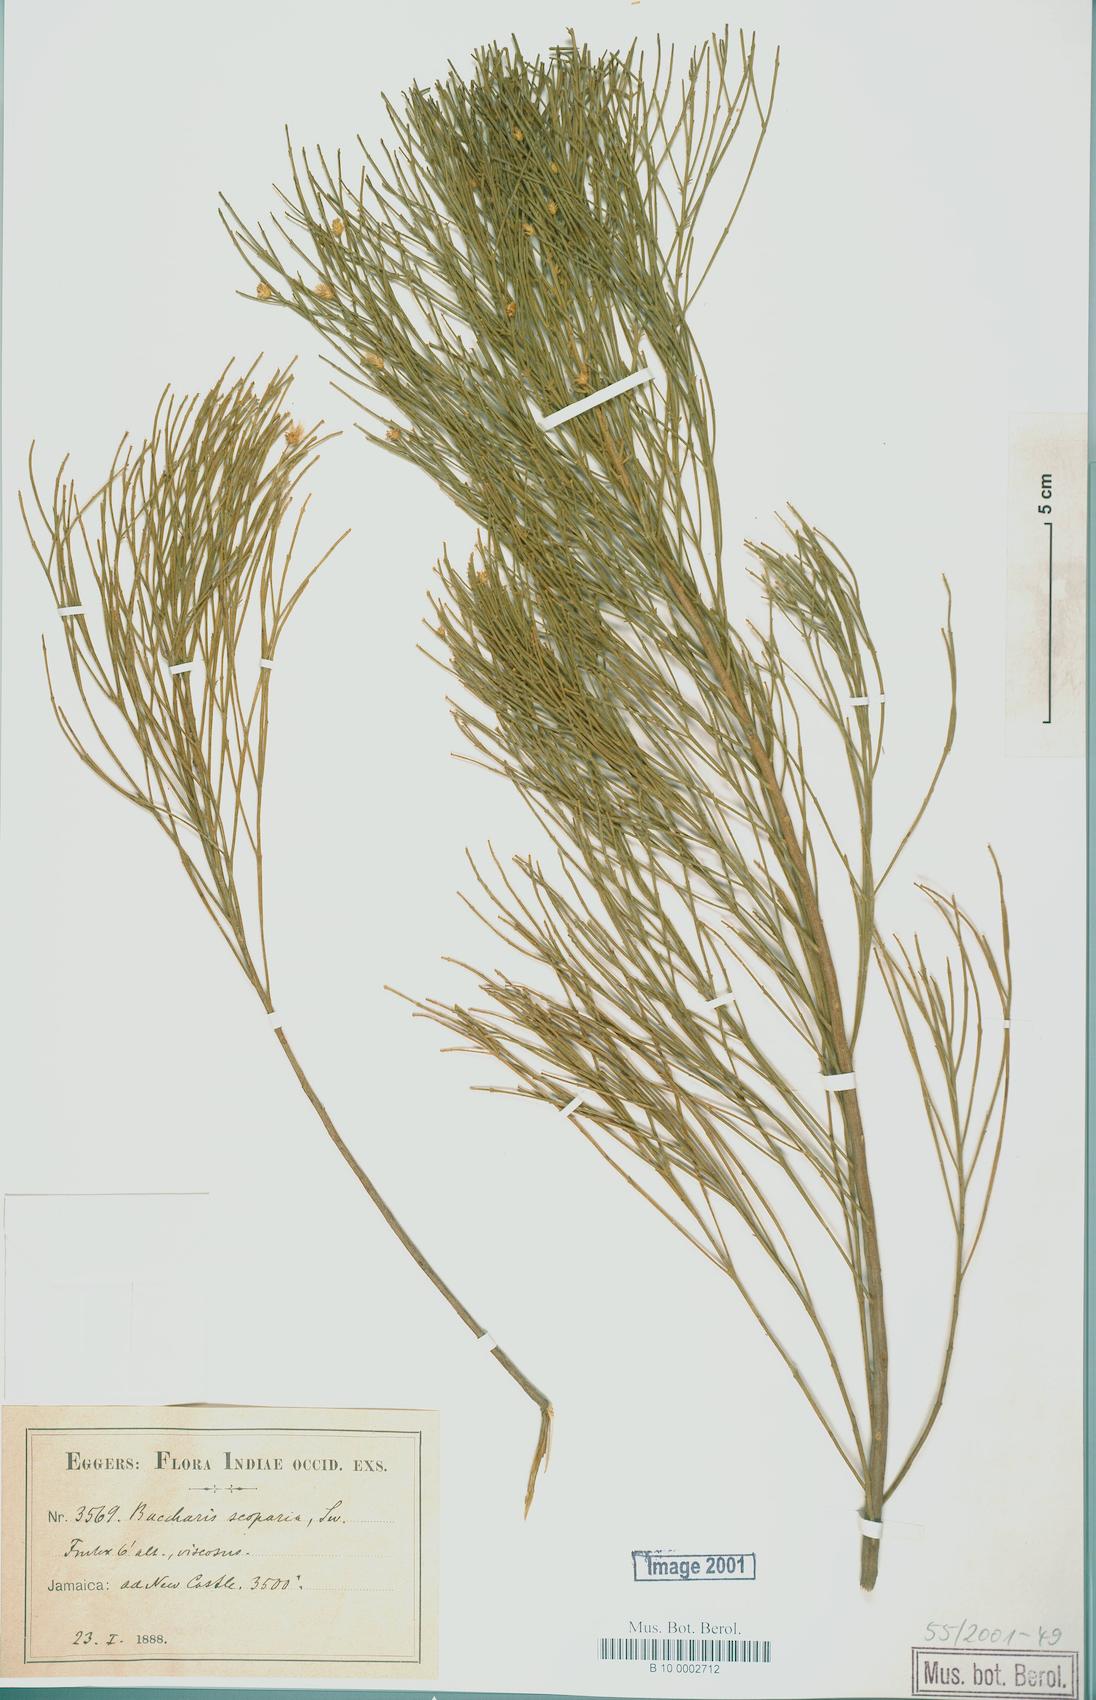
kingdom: Plantae
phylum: Tracheophyta
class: Magnoliopsida
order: Asterales
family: Asteraceae
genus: Baccharis
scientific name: Baccharis scoparia
